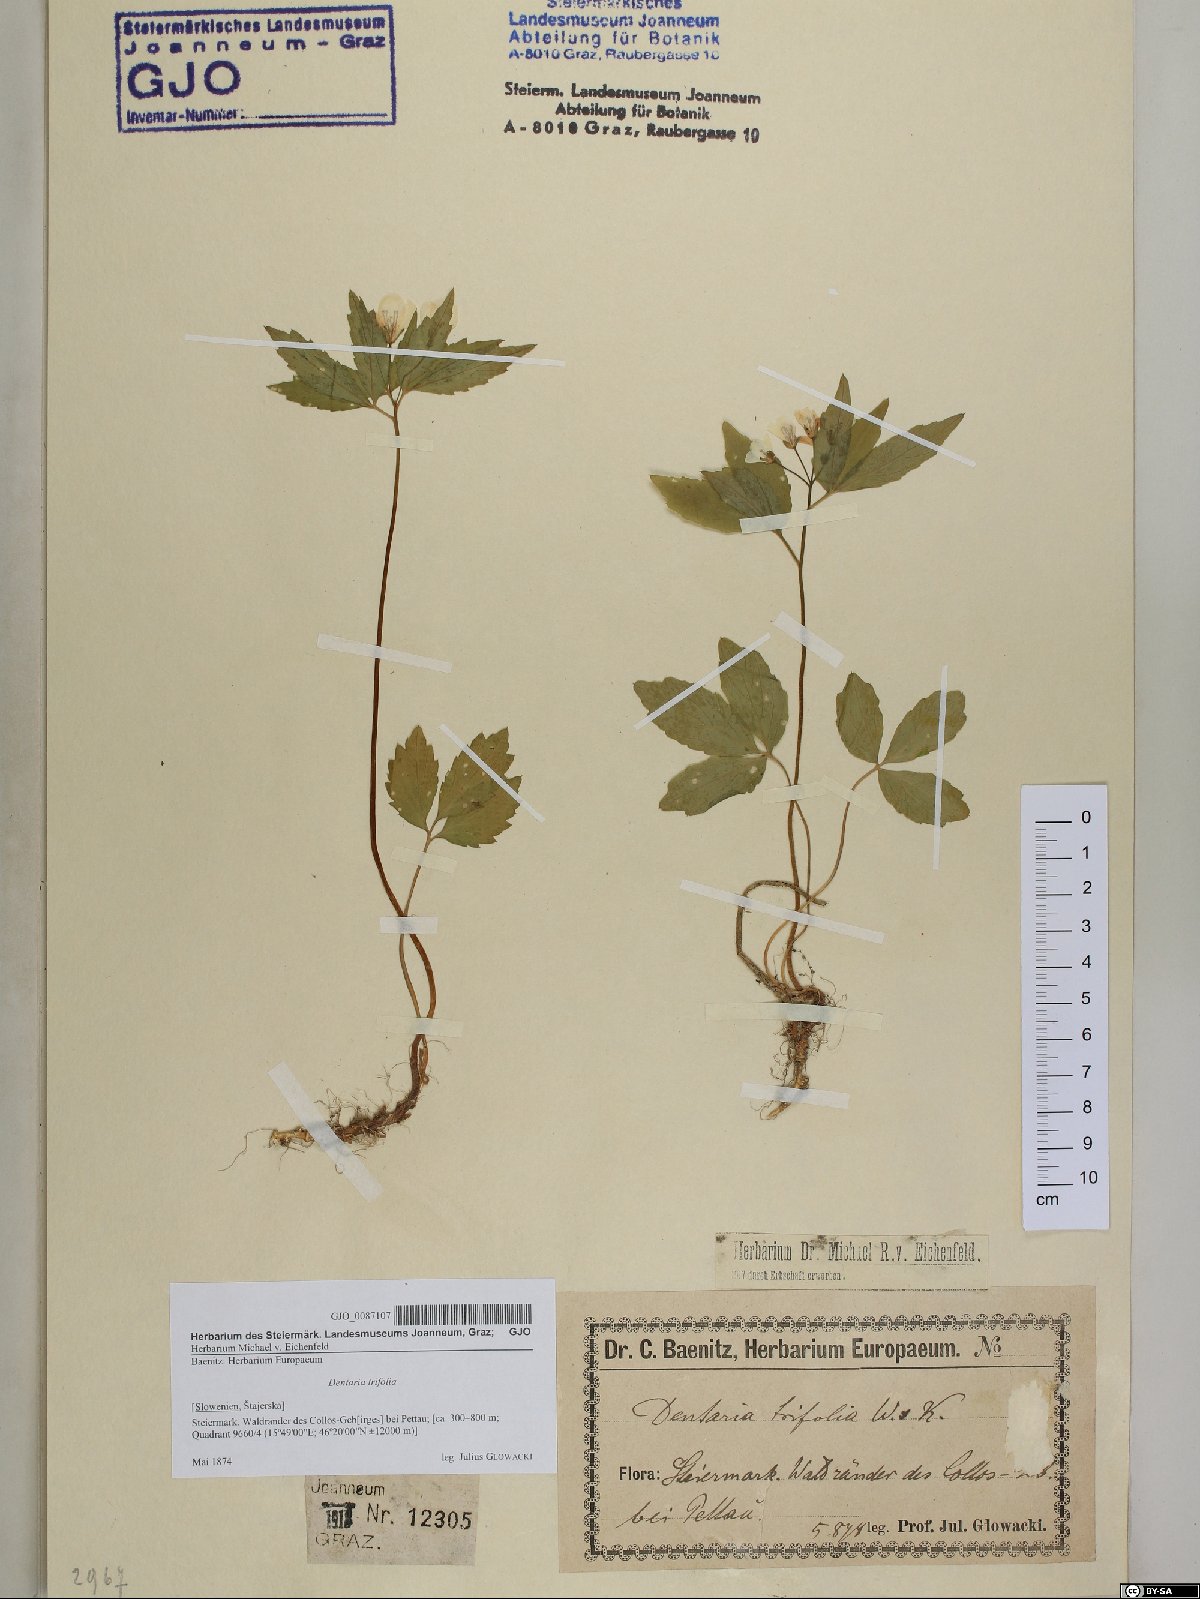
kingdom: Plantae
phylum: Tracheophyta
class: Magnoliopsida
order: Brassicales
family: Brassicaceae
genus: Cardamine
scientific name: Cardamine waldsteinii
